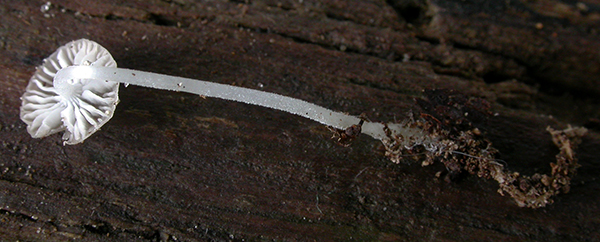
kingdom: Fungi
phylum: Basidiomycota
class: Agaricomycetes
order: Agaricales
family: Porotheleaceae
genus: Phloeomana
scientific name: Phloeomana hiemalis
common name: sen huesvamp
